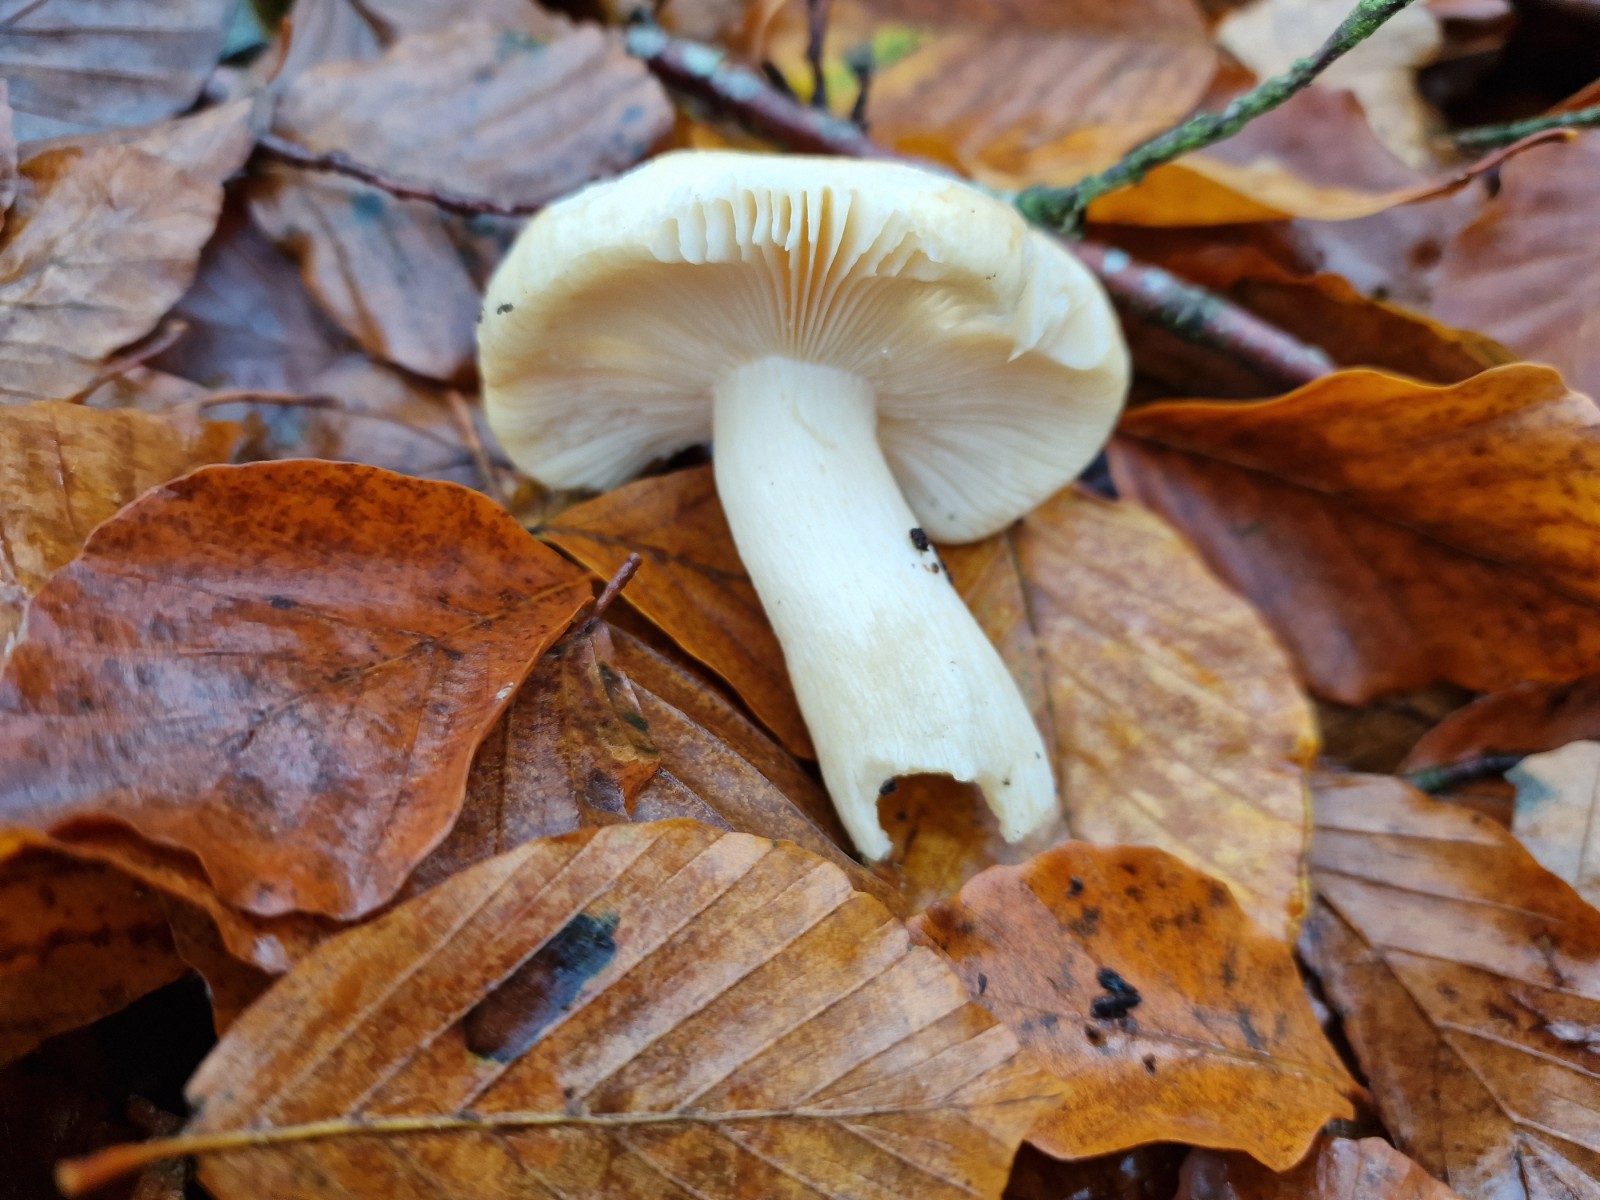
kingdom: Fungi
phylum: Basidiomycota
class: Agaricomycetes
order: Russulales
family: Russulaceae
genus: Russula
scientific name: Russula fellea
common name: galde-skørhat
